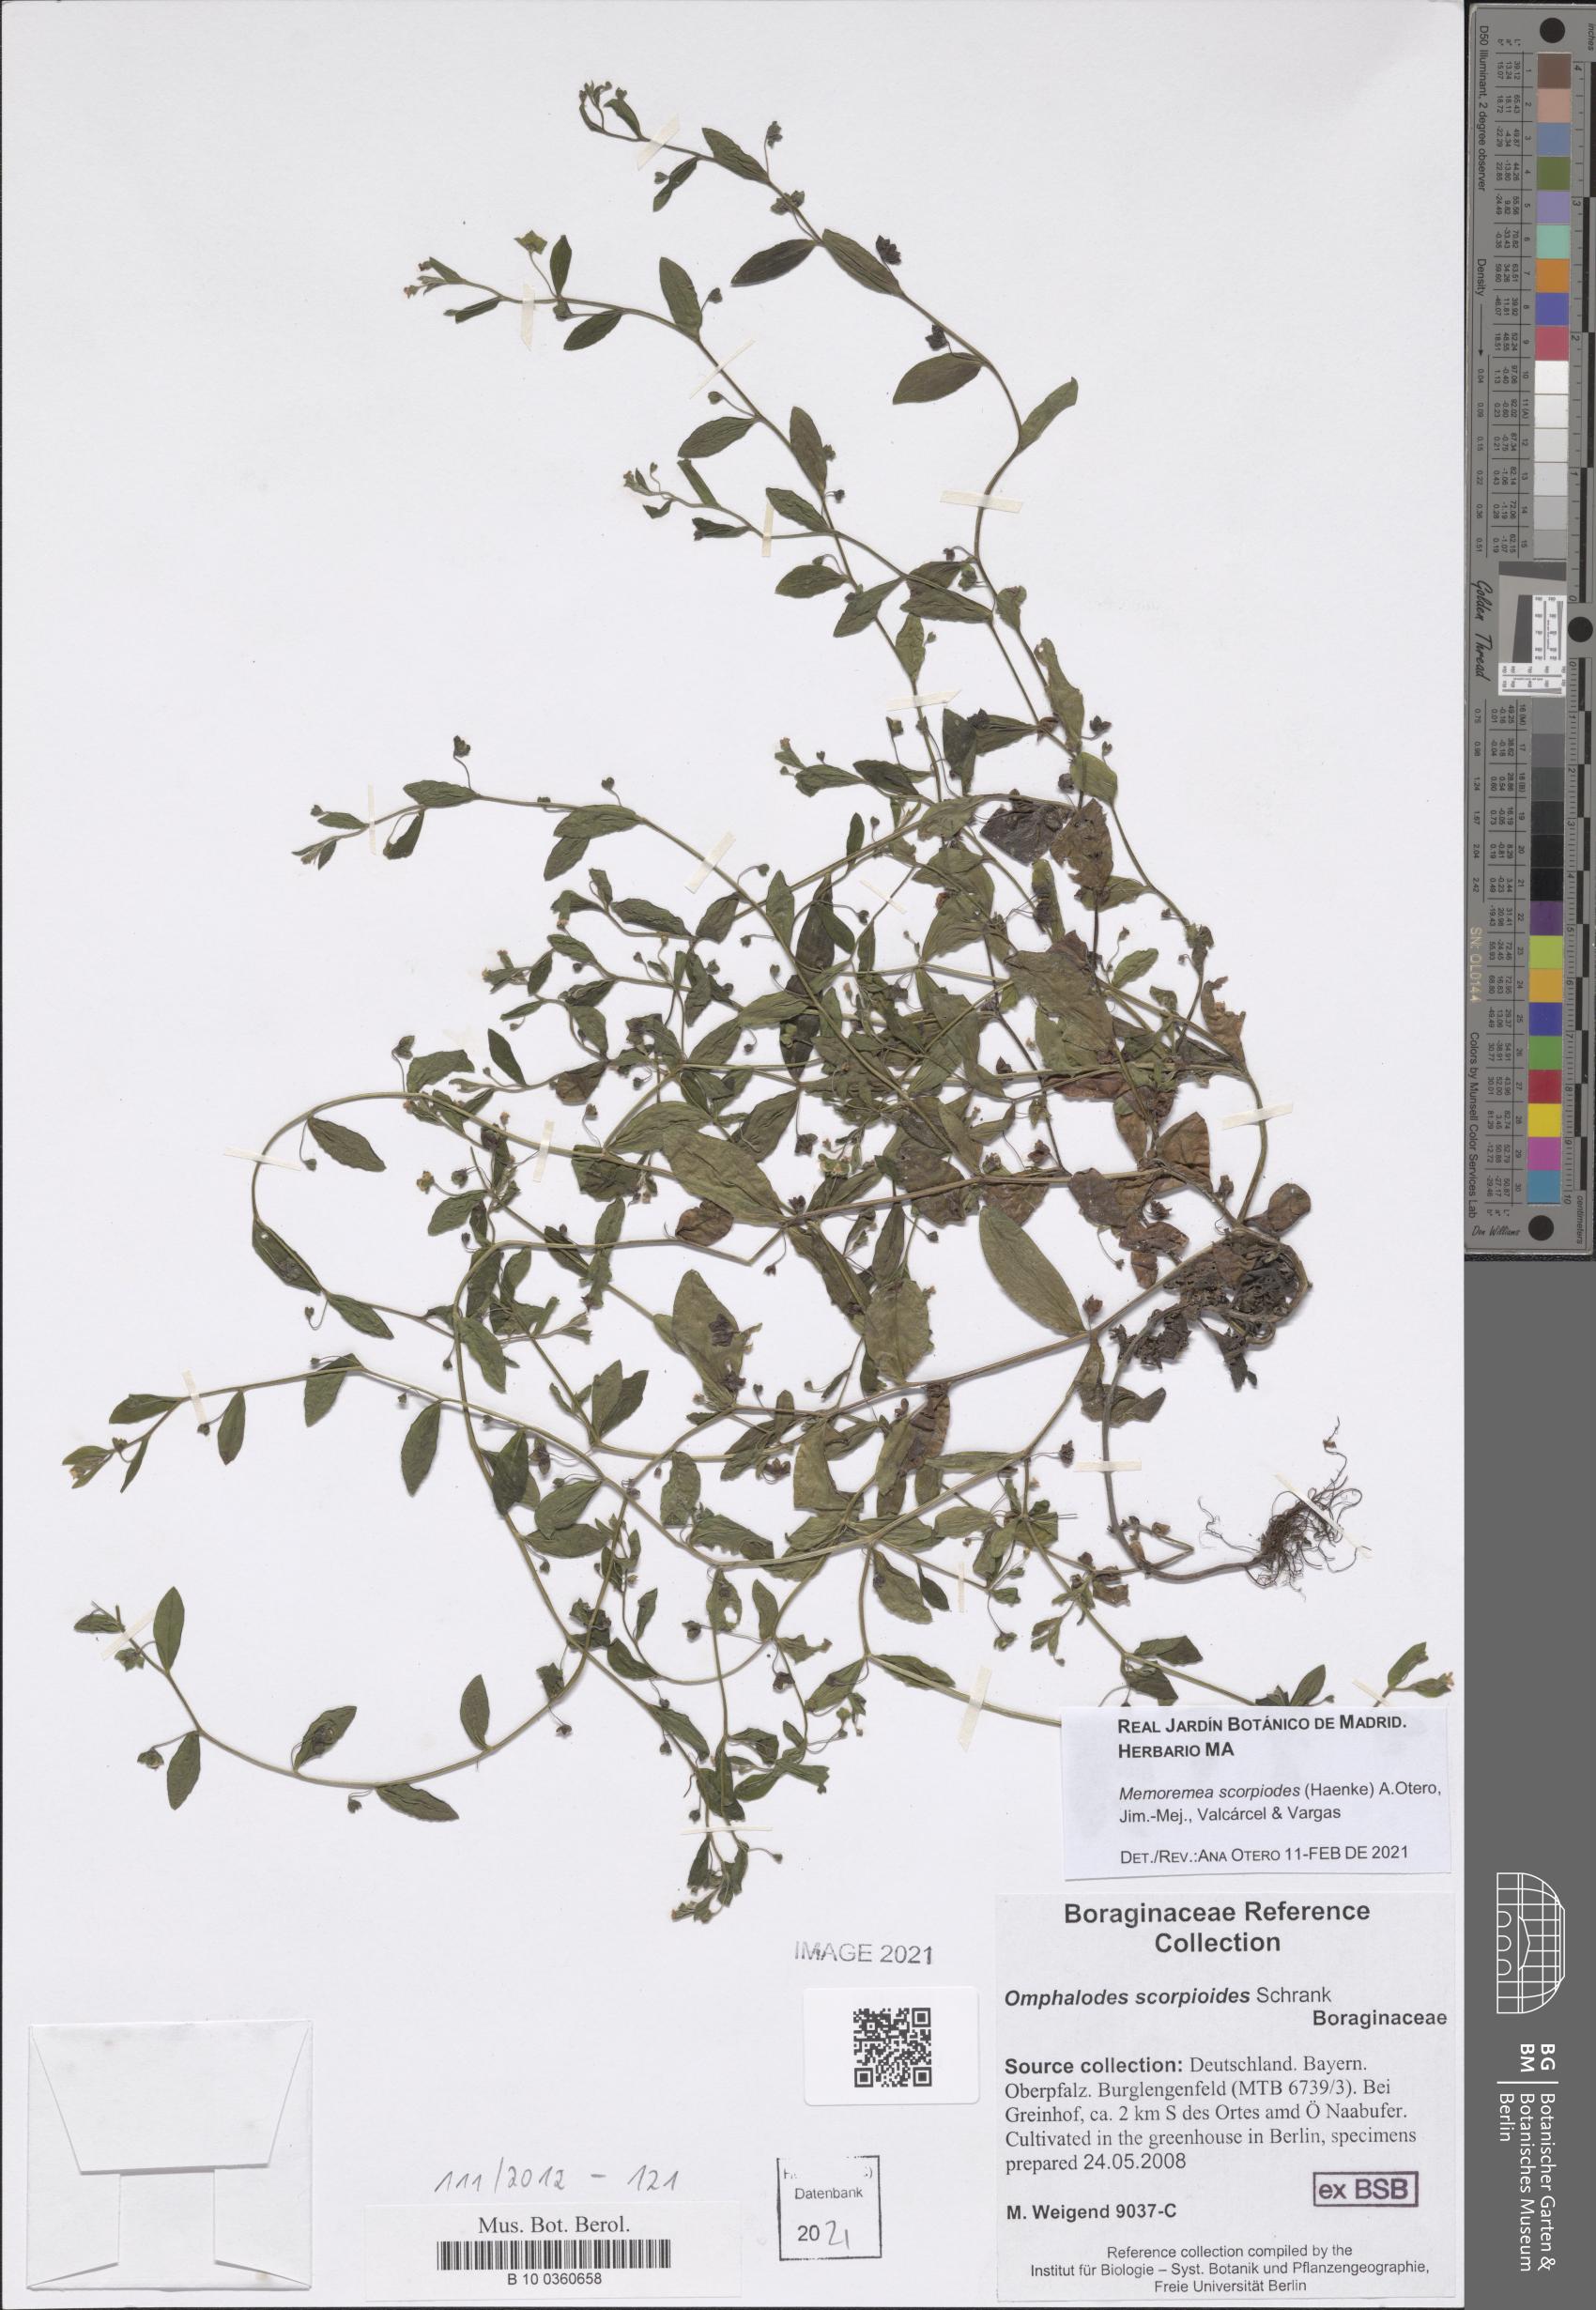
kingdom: Plantae
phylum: Tracheophyta
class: Magnoliopsida
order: Boraginales
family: Boraginaceae
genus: Memoremea
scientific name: Memoremea scorpioides
